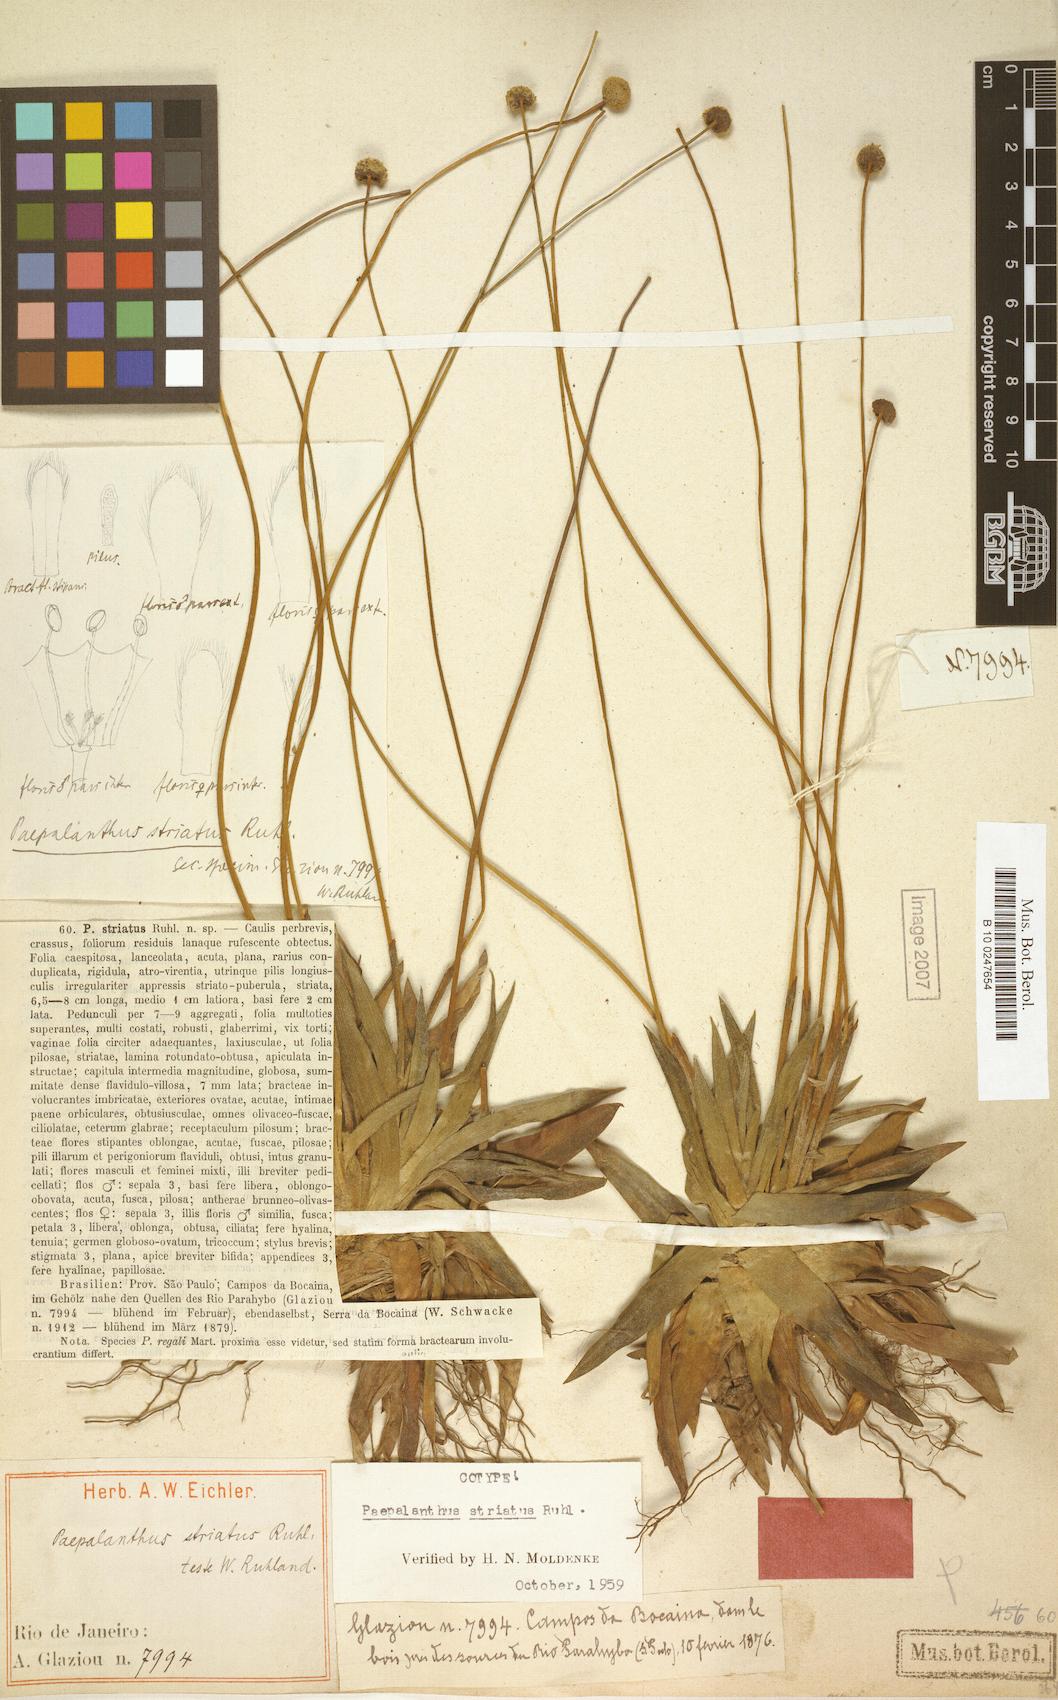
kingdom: Plantae
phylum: Tracheophyta
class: Liliopsida
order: Poales
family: Eriocaulaceae
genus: Paepalanthus
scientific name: Paepalanthus striatus
